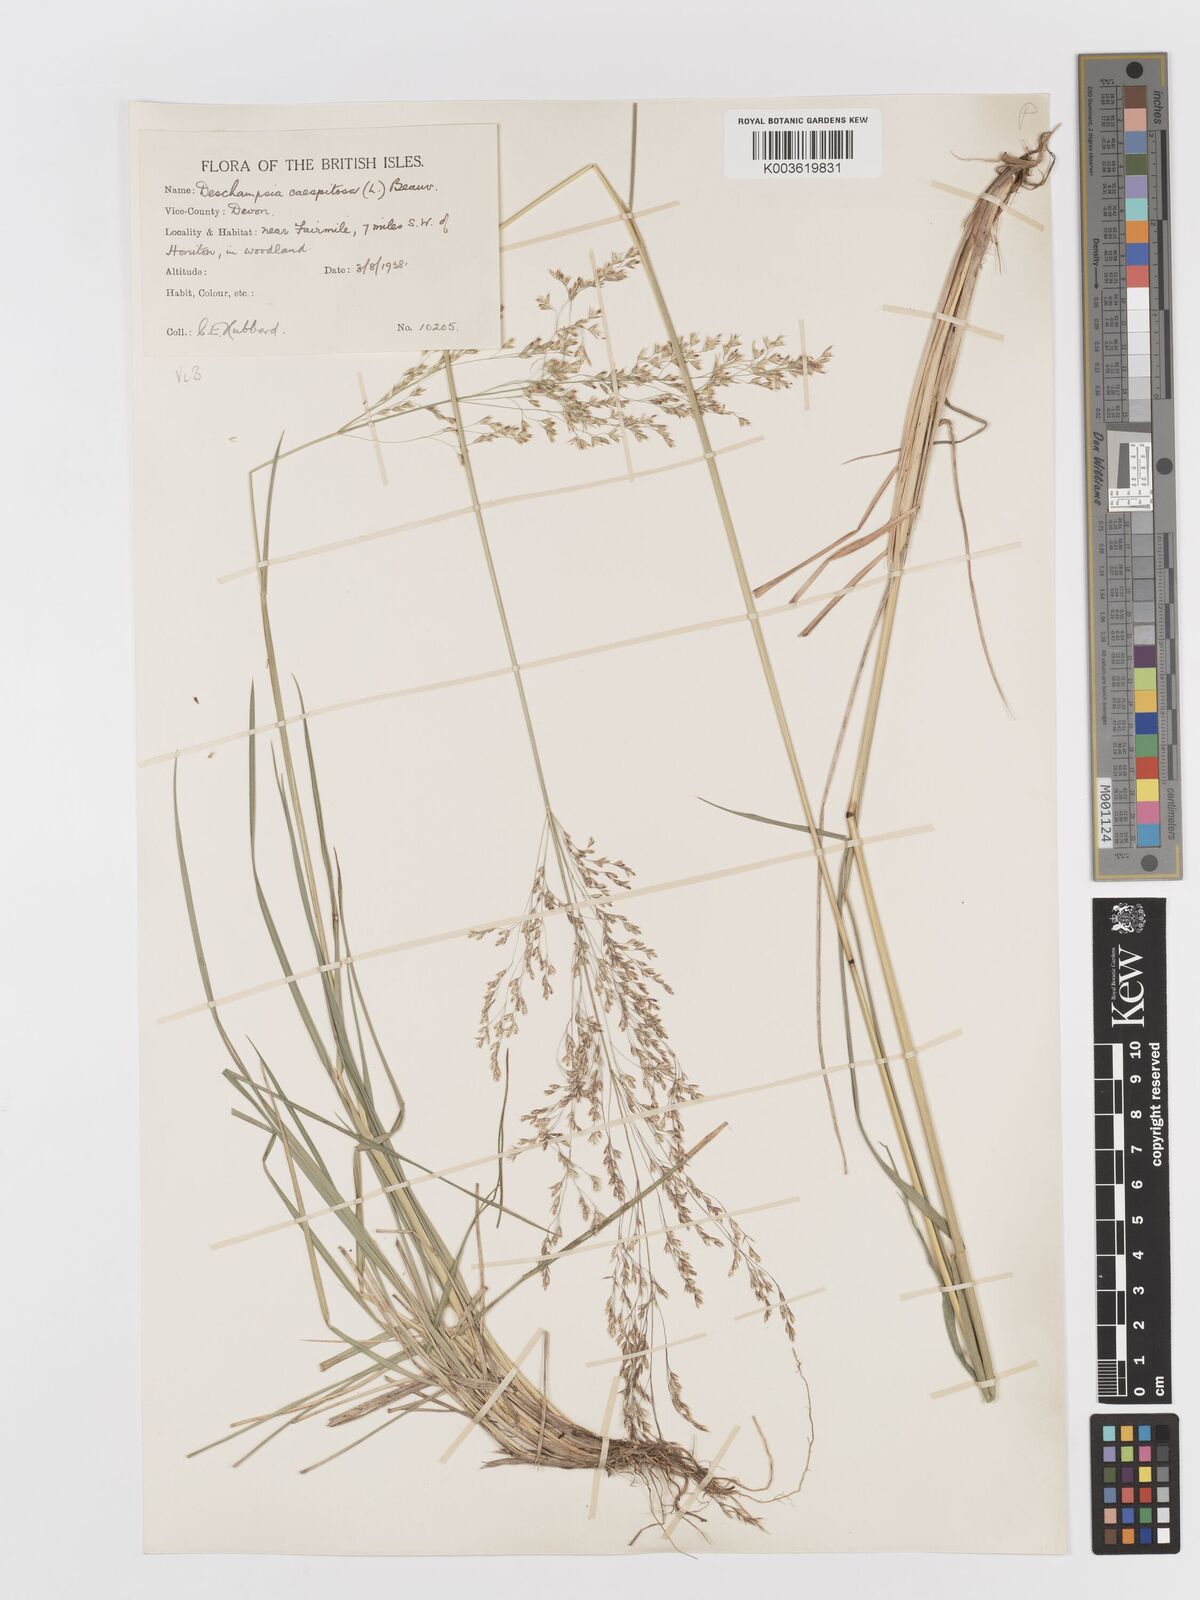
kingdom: Plantae
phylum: Tracheophyta
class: Liliopsida
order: Poales
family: Poaceae
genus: Deschampsia
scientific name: Deschampsia cespitosa
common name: Tufted hair-grass
